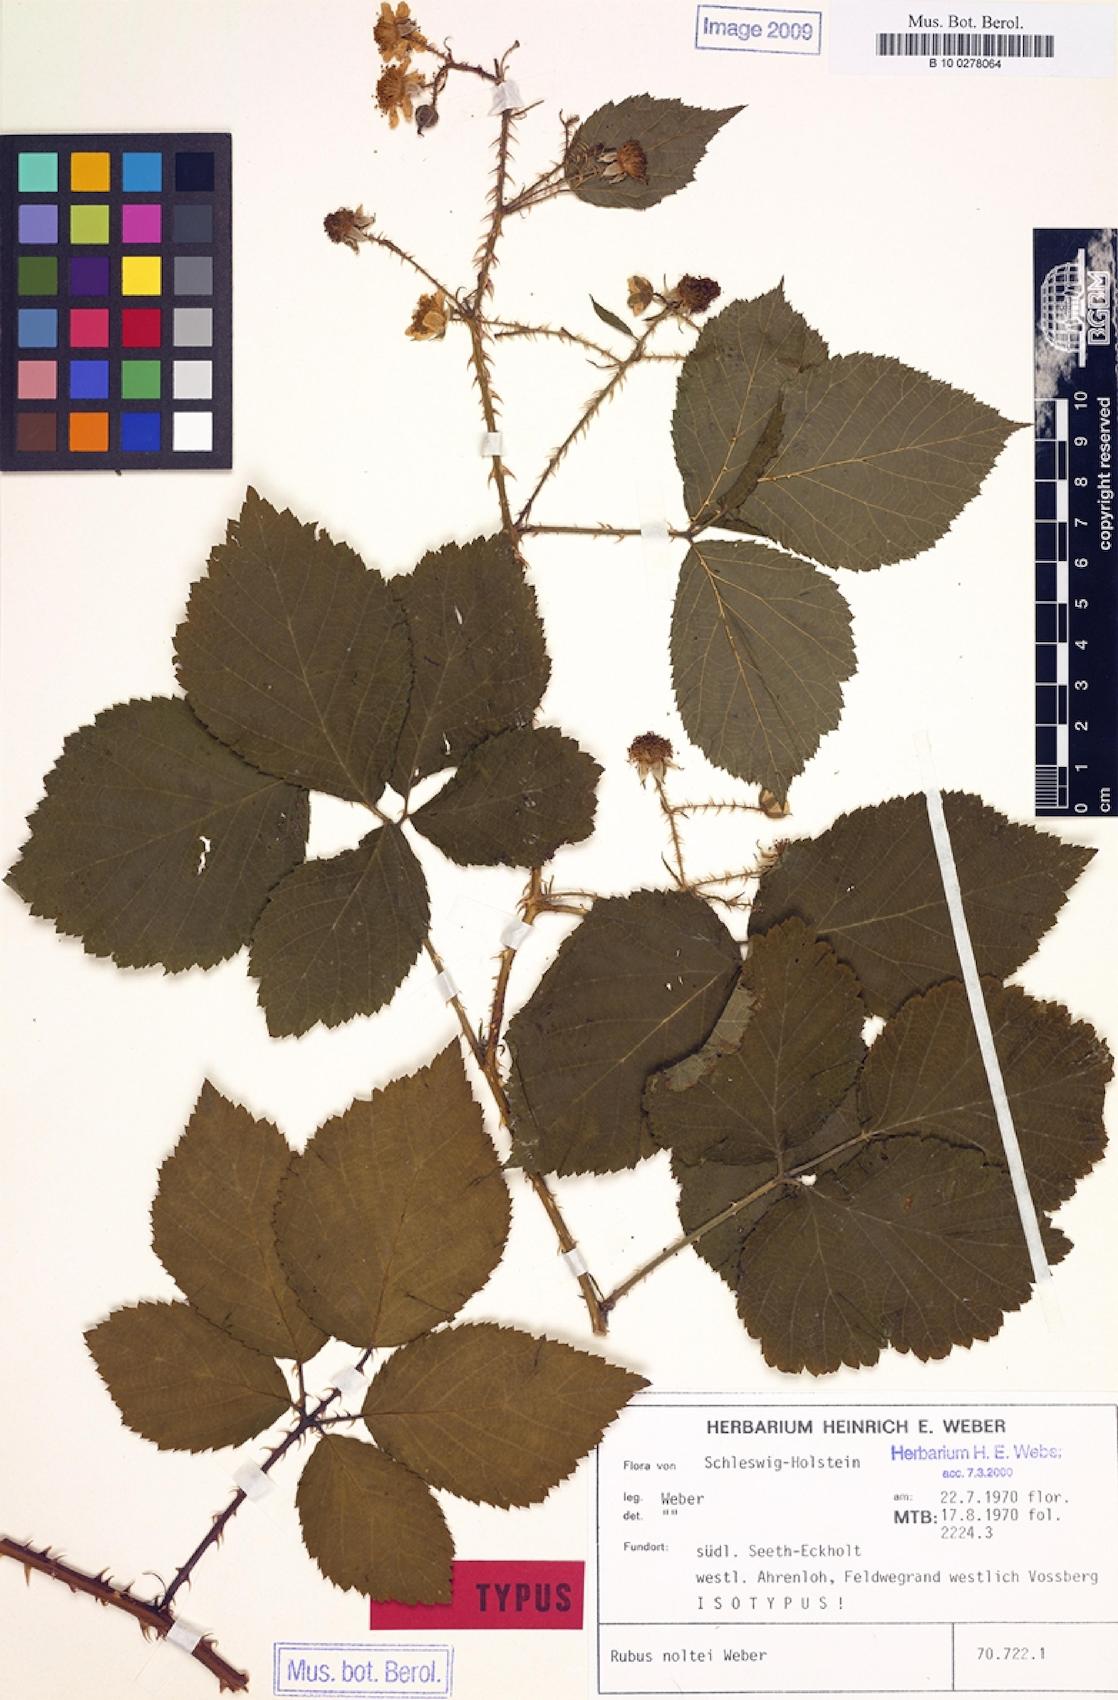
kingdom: Plantae
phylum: Tracheophyta
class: Magnoliopsida
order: Rosales
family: Rosaceae
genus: Rubus
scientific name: Rubus noltei
